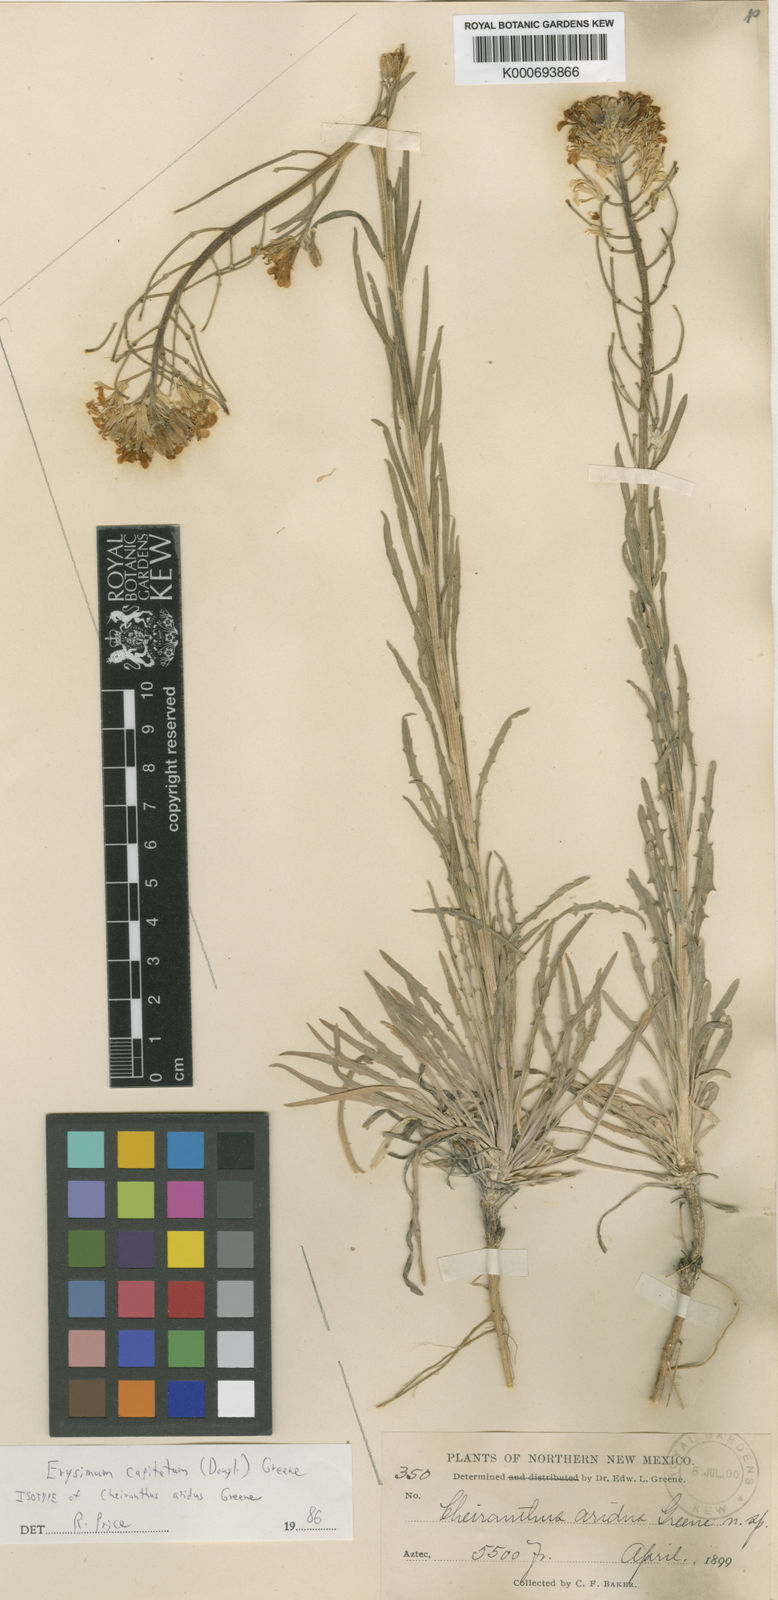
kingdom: Plantae
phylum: Tracheophyta
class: Magnoliopsida
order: Brassicales
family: Brassicaceae
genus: Erysimum
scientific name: Erysimum capitatum
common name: Western wallflower
